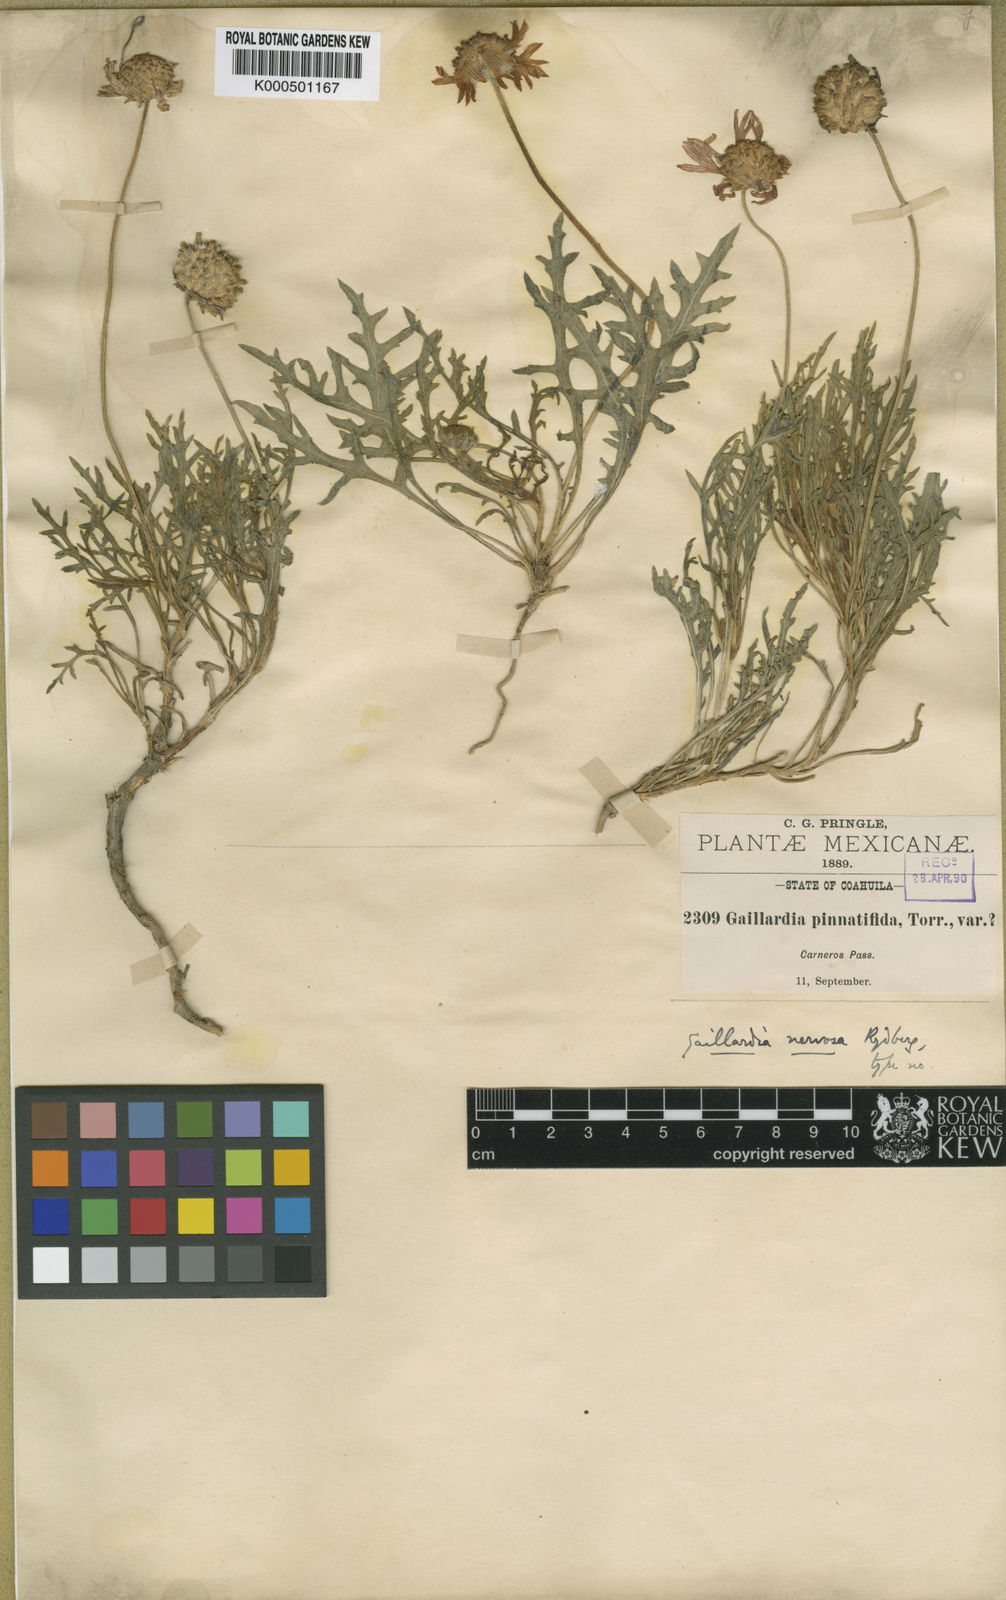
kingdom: Plantae
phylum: Tracheophyta
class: Magnoliopsida
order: Asterales
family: Asteraceae
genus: Gaillardia
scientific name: Gaillardia comosa
